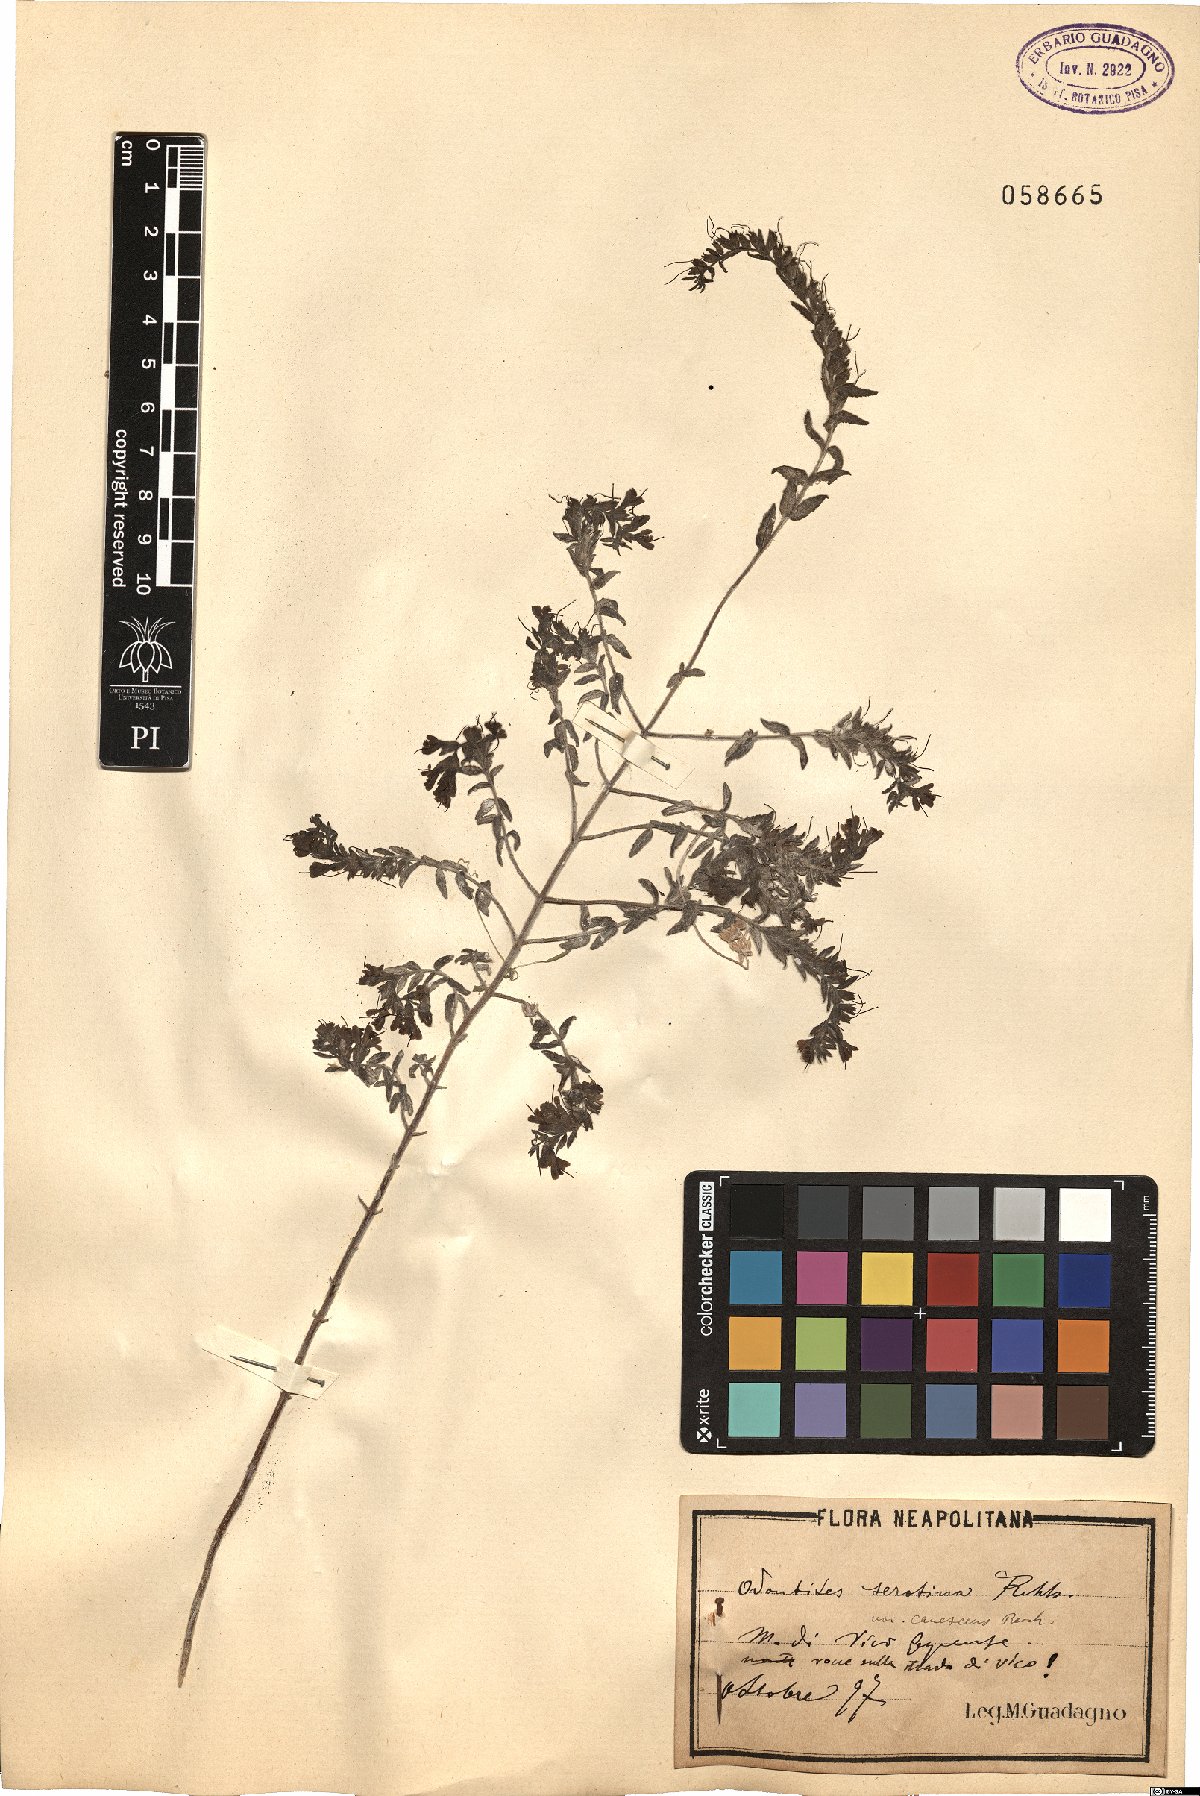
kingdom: Plantae
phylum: Tracheophyta
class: Magnoliopsida
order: Lamiales
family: Orobanchaceae
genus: Odontites
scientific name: Odontites vernus
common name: Red bartsia
